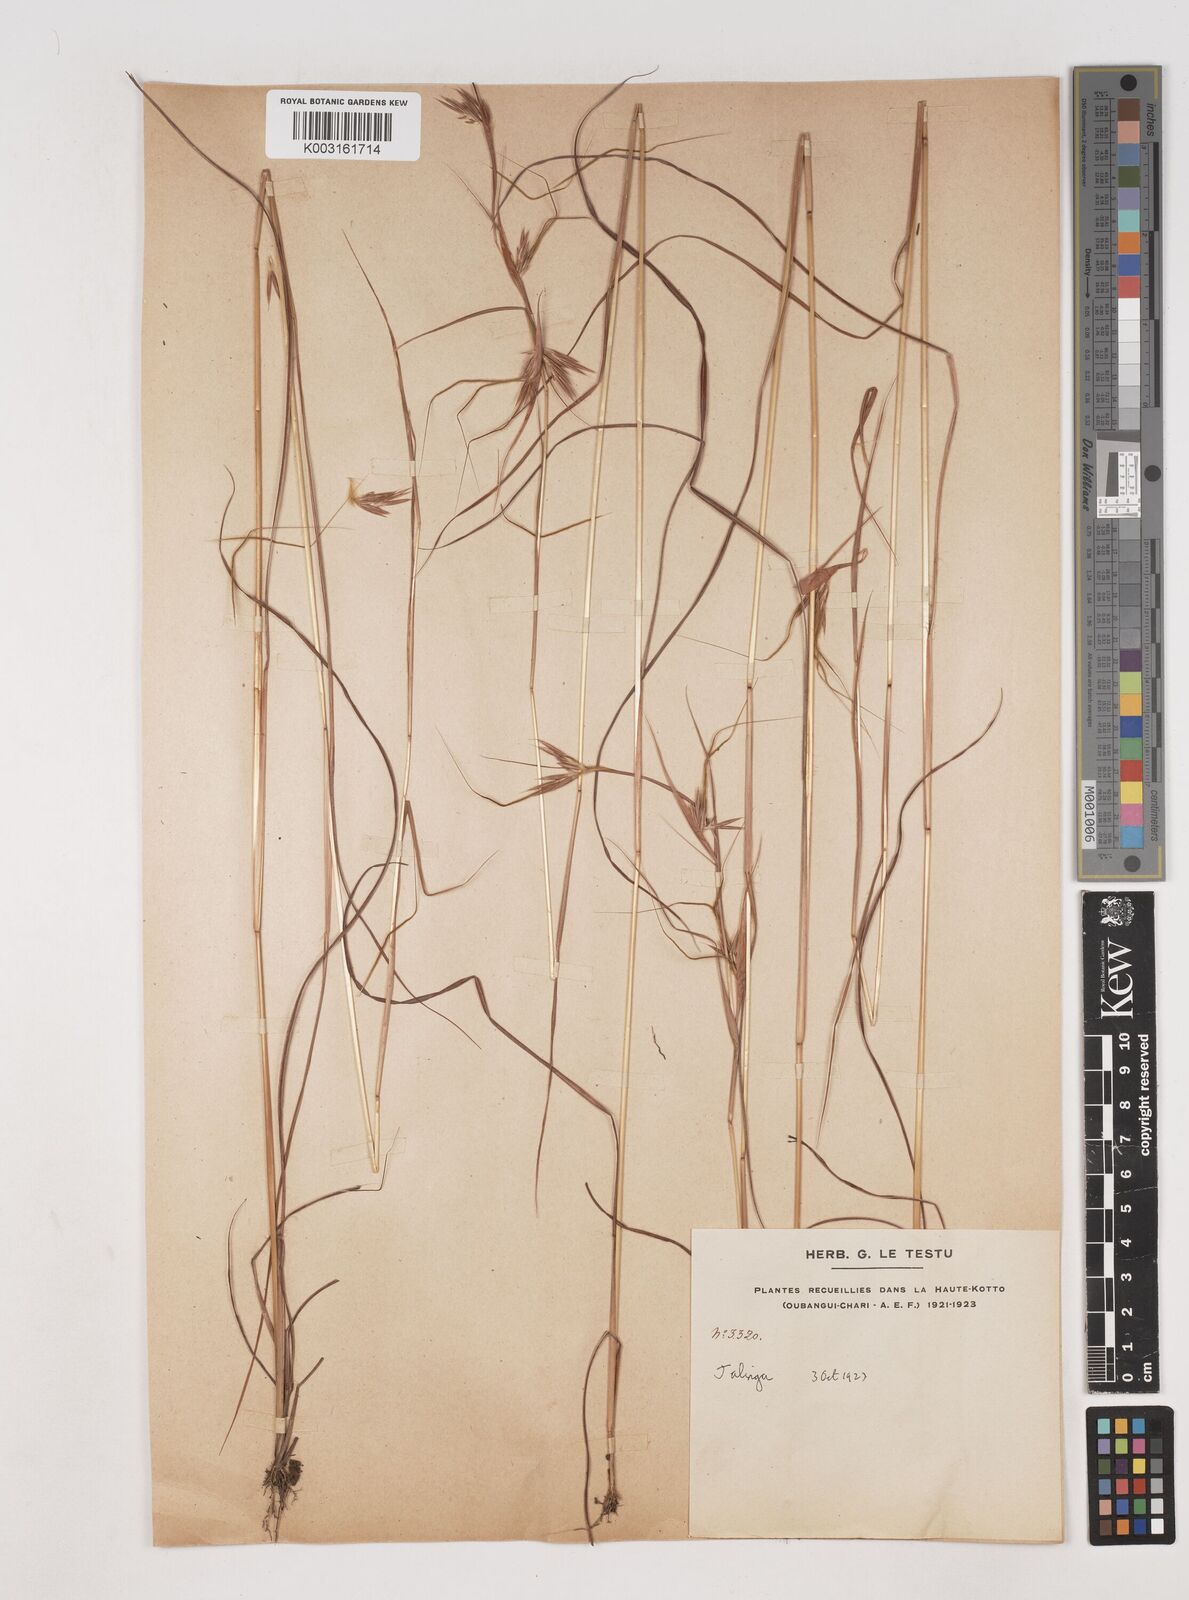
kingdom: Plantae
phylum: Tracheophyta
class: Liliopsida
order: Poales
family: Poaceae
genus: Hyparrhenia
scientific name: Hyparrhenia bagirmica
